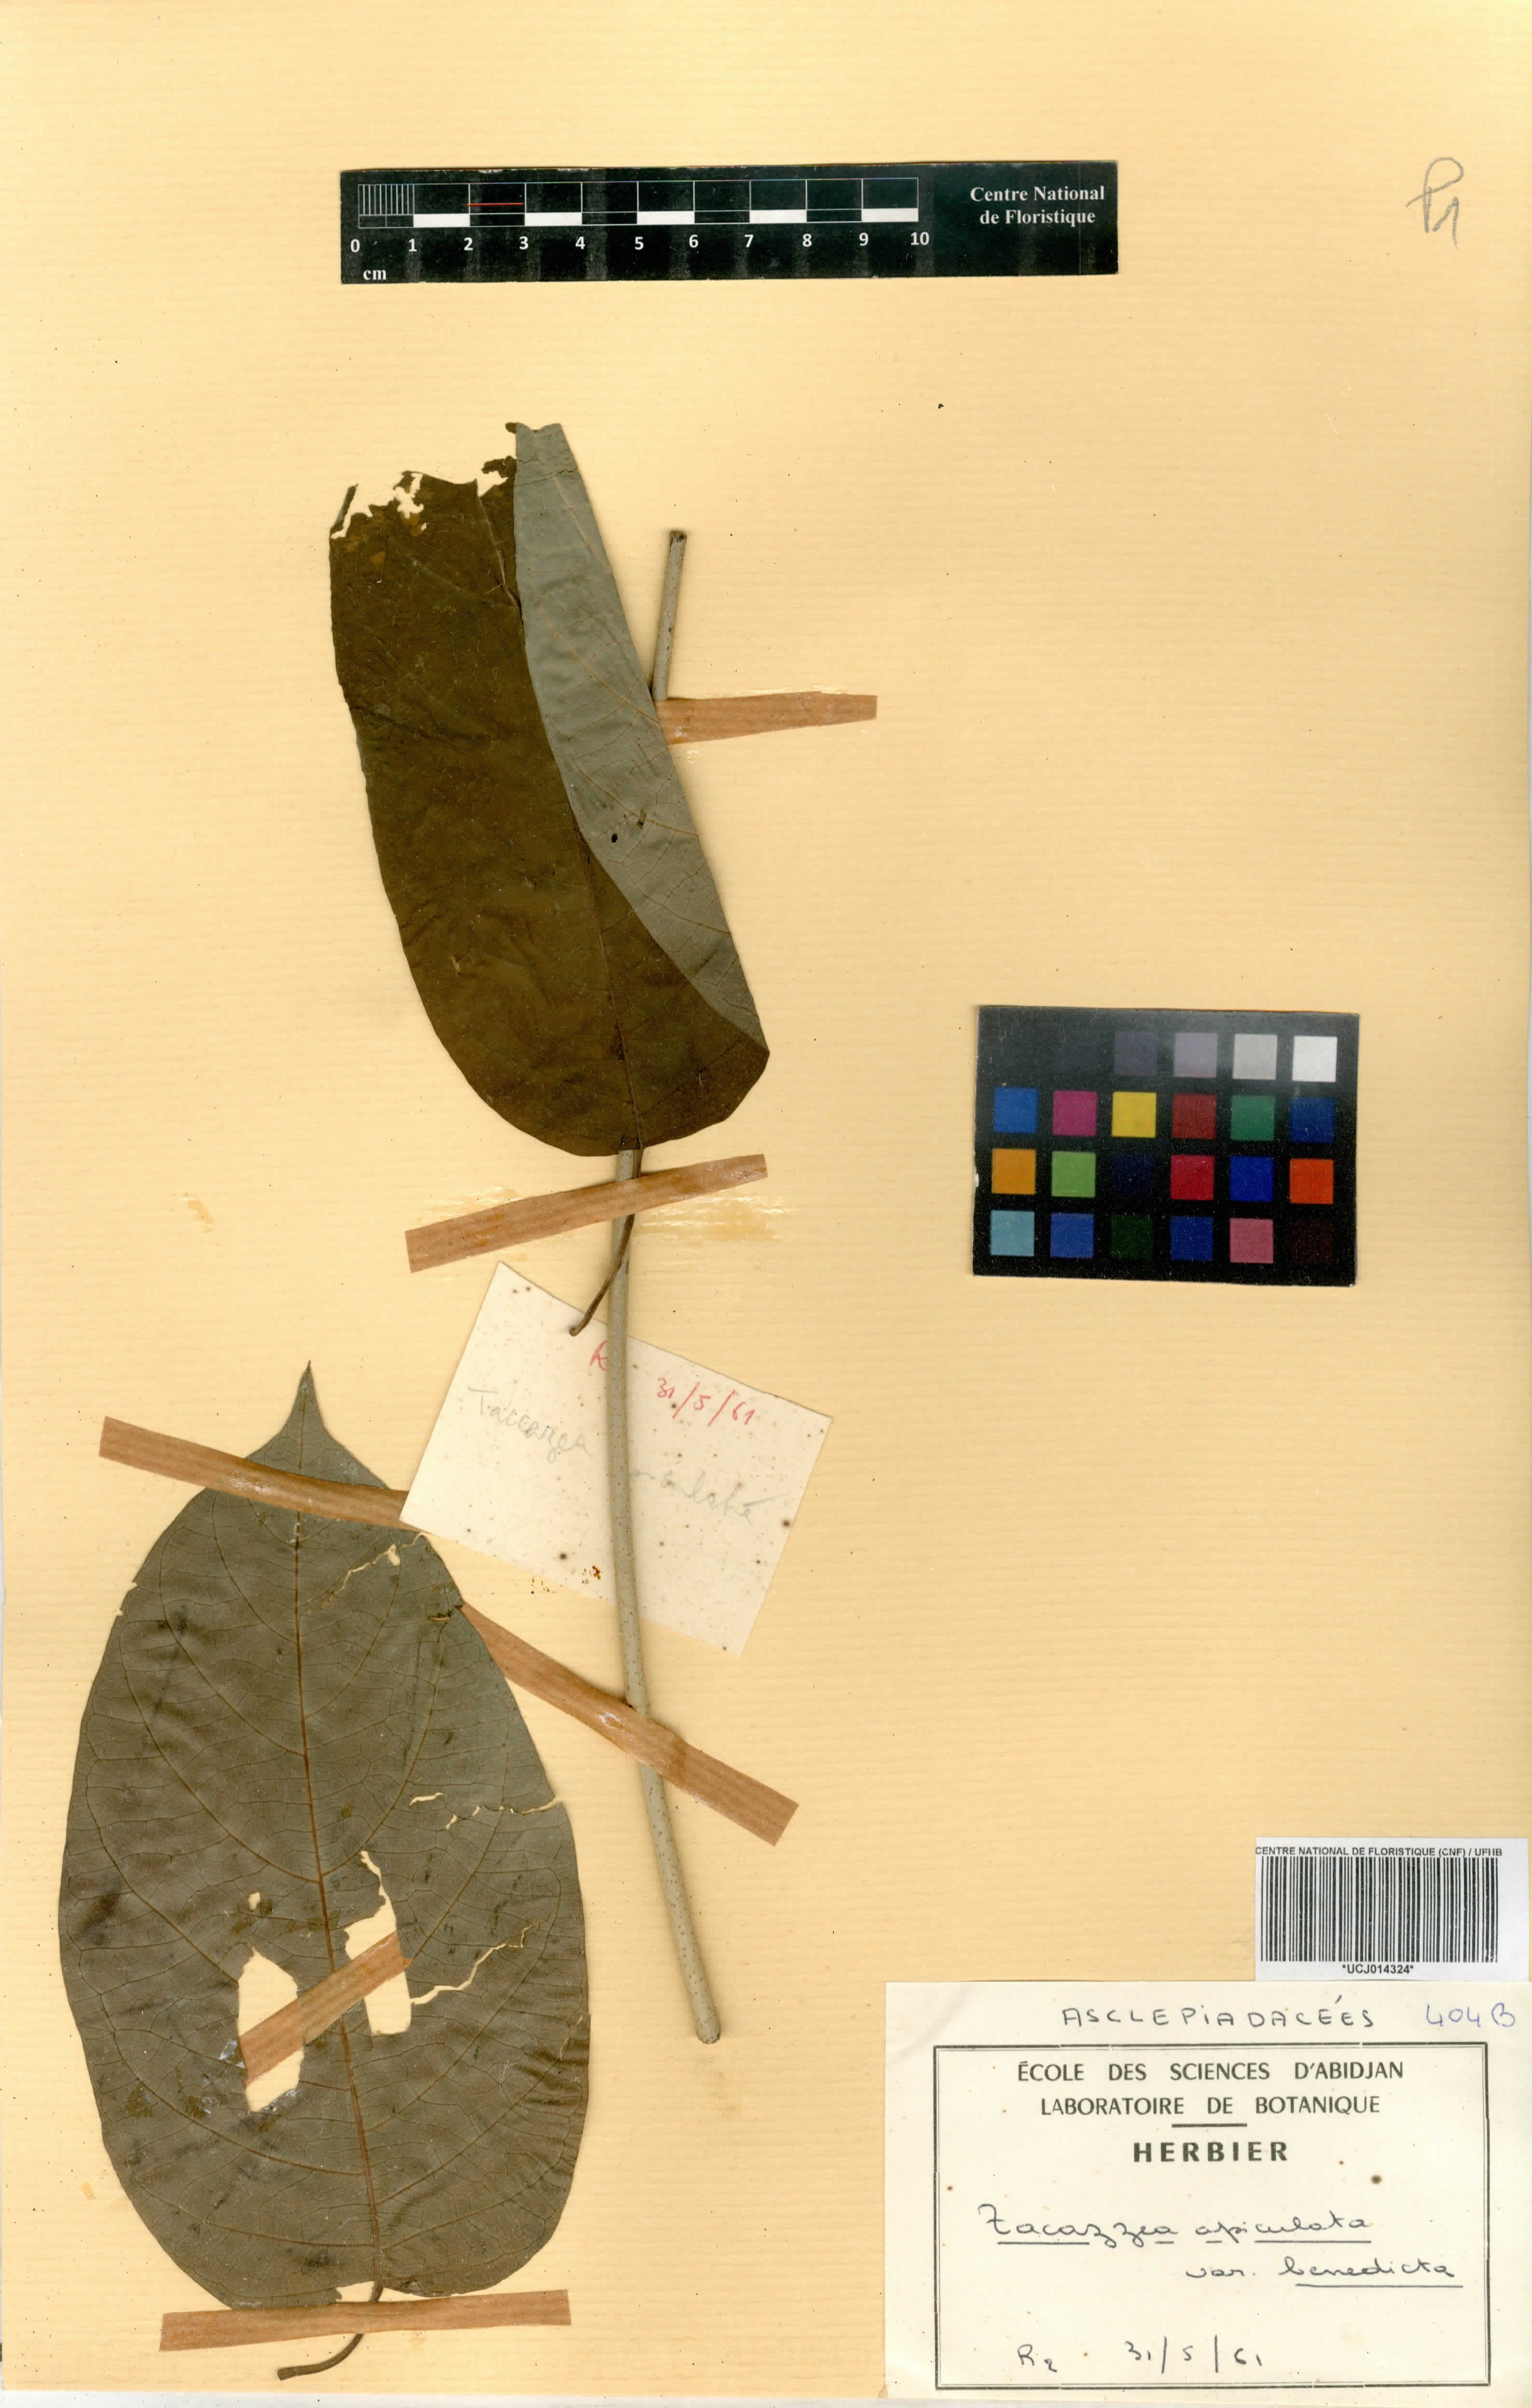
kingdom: Plantae
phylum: Tracheophyta
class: Magnoliopsida
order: Gentianales
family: Apocynaceae
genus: Tacazzea
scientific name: Tacazzea apiculata
